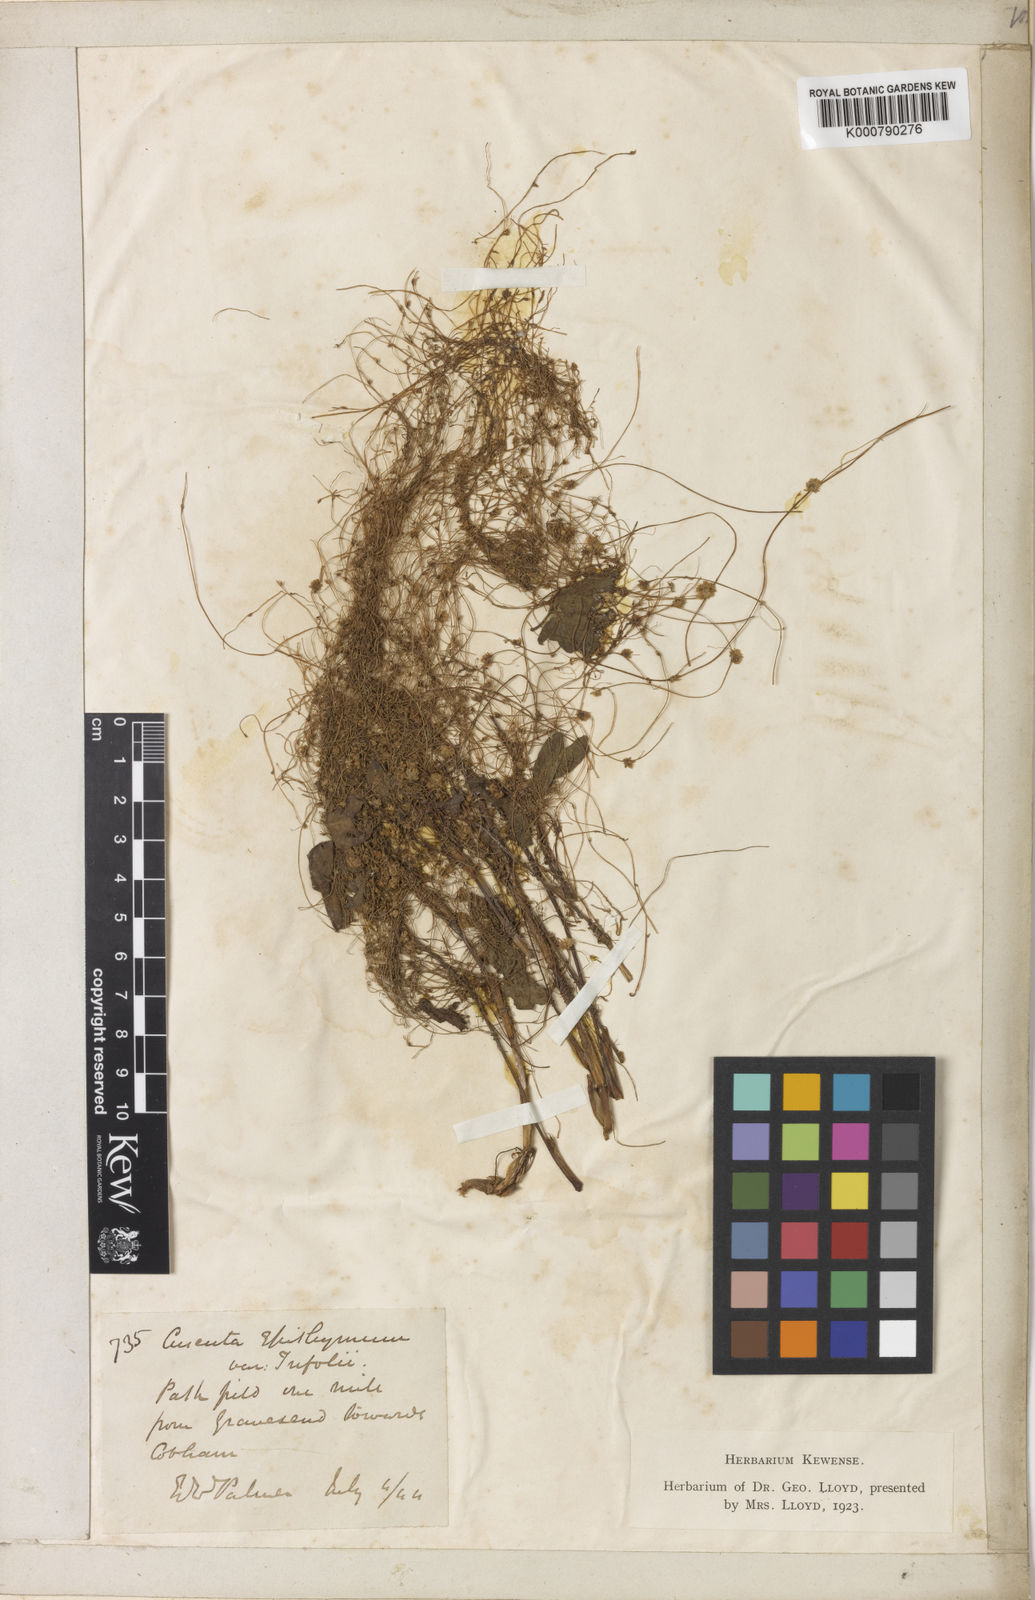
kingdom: Plantae
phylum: Tracheophyta
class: Magnoliopsida
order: Solanales
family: Convolvulaceae
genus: Cuscuta
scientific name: Cuscuta epithymum
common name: Clover dodder
